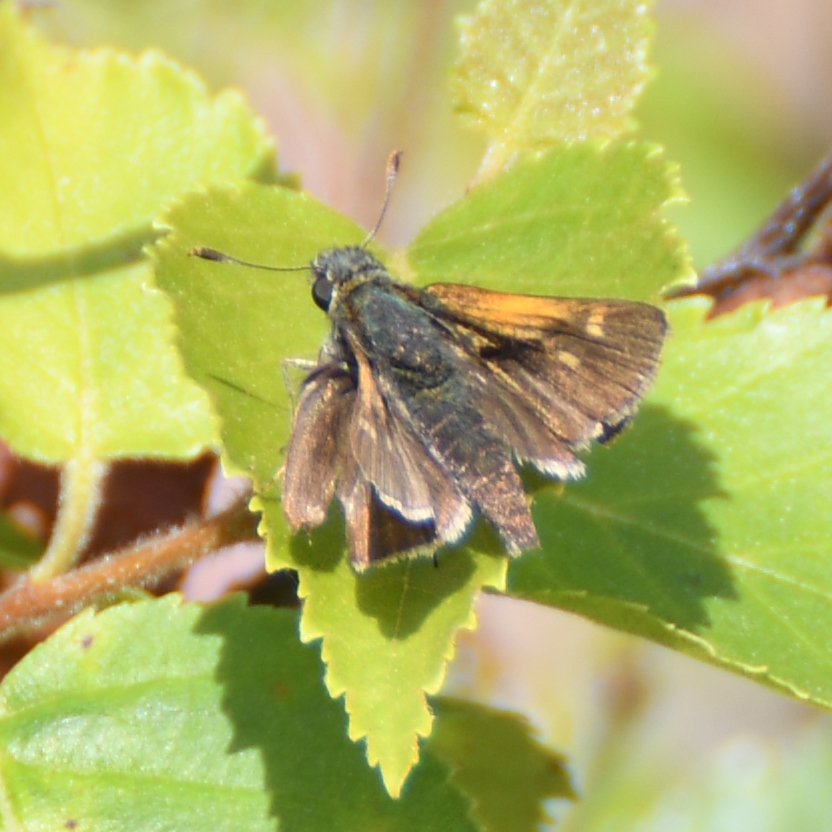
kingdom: Animalia
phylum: Arthropoda
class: Insecta
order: Lepidoptera
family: Hesperiidae
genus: Polites
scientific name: Polites themistocles
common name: Tawny-edged Skipper
